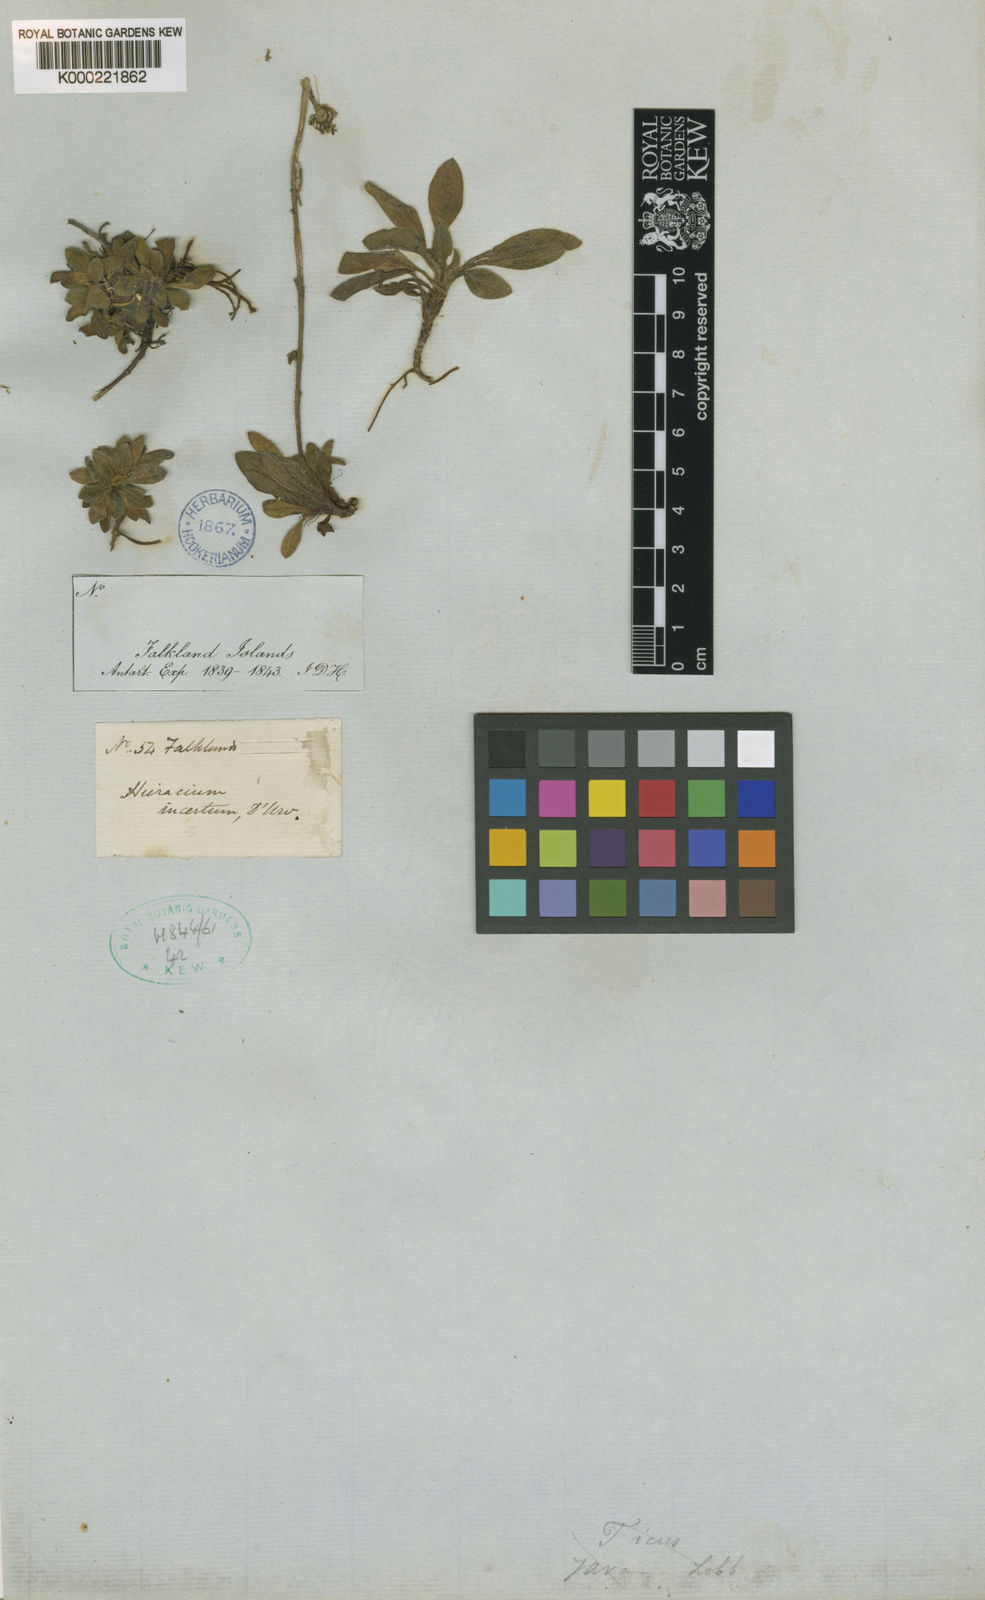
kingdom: Plantae
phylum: Tracheophyta
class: Magnoliopsida
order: Asterales
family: Asteraceae
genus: Erigeron
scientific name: Erigeron incertus
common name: Hairy daisy
